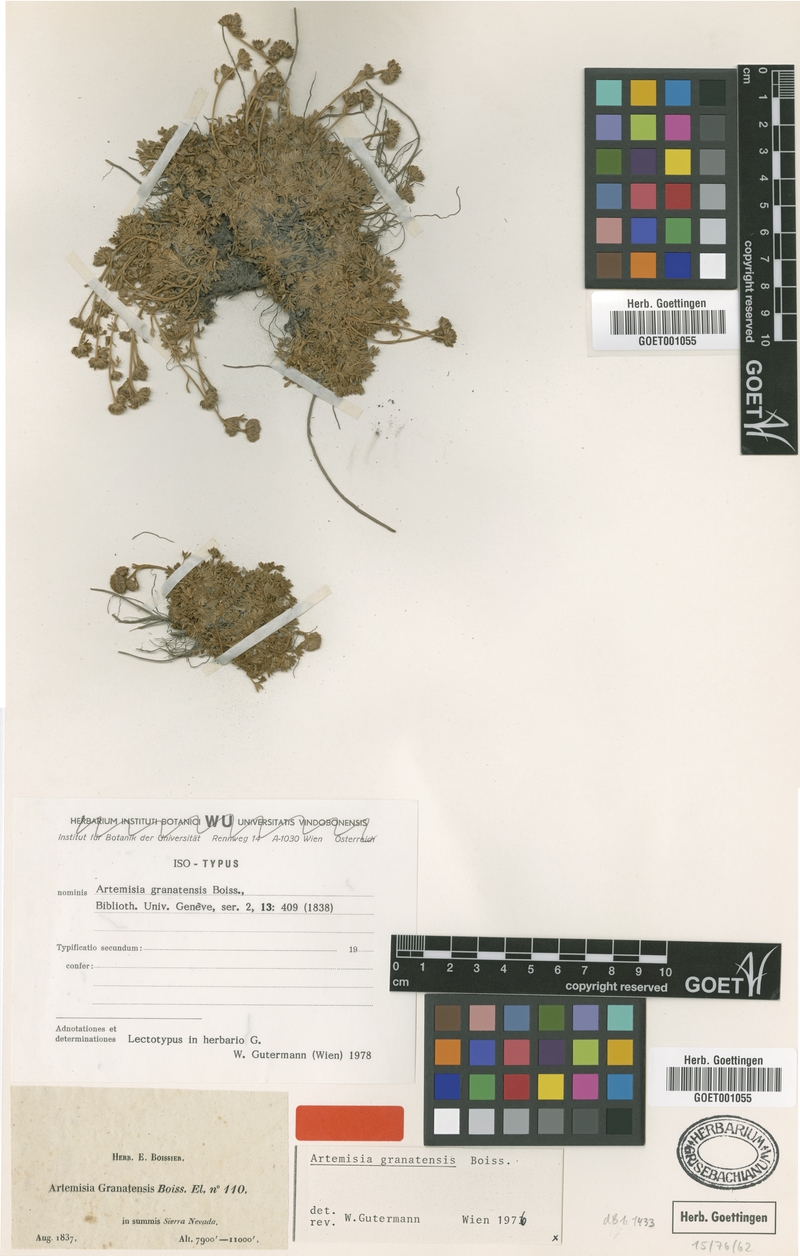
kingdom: Plantae
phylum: Tracheophyta
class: Magnoliopsida
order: Asterales
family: Asteraceae
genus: Artemisia
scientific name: Artemisia granatensis
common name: Royal chamomile
